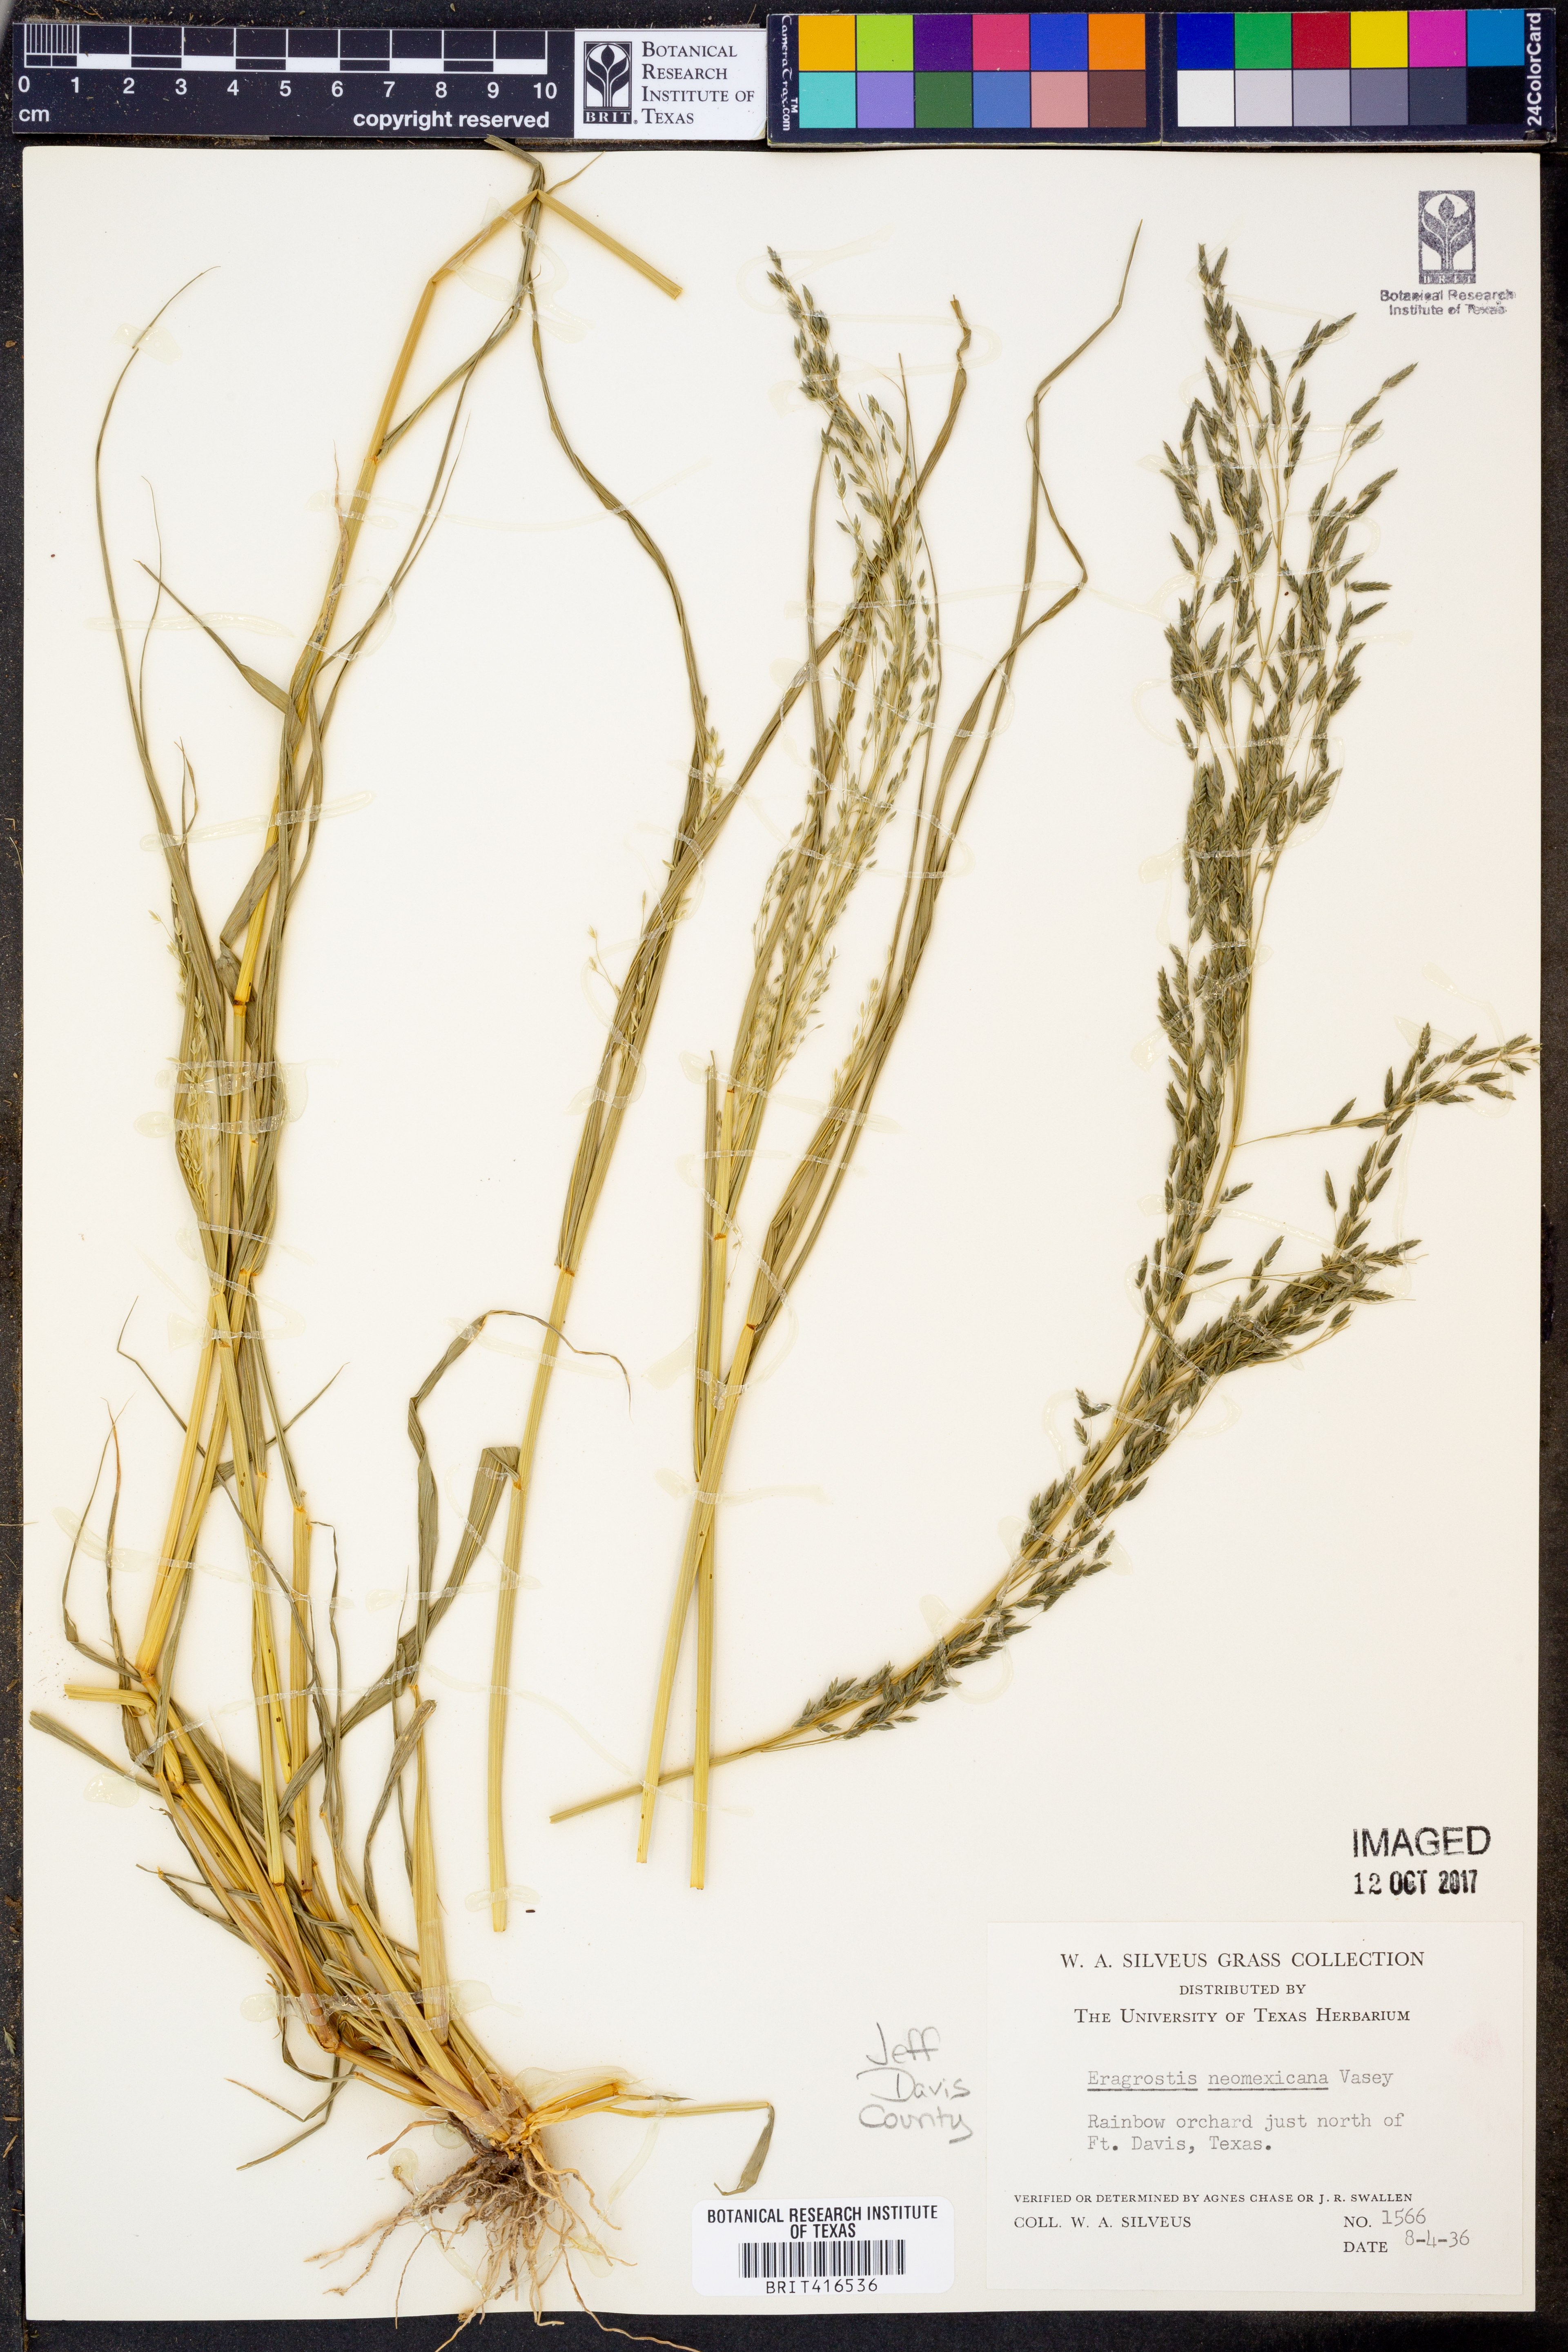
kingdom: Plantae
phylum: Tracheophyta
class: Liliopsida
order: Poales
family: Poaceae
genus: Eragrostis
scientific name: Eragrostis mexicana
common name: Mexican love grass
